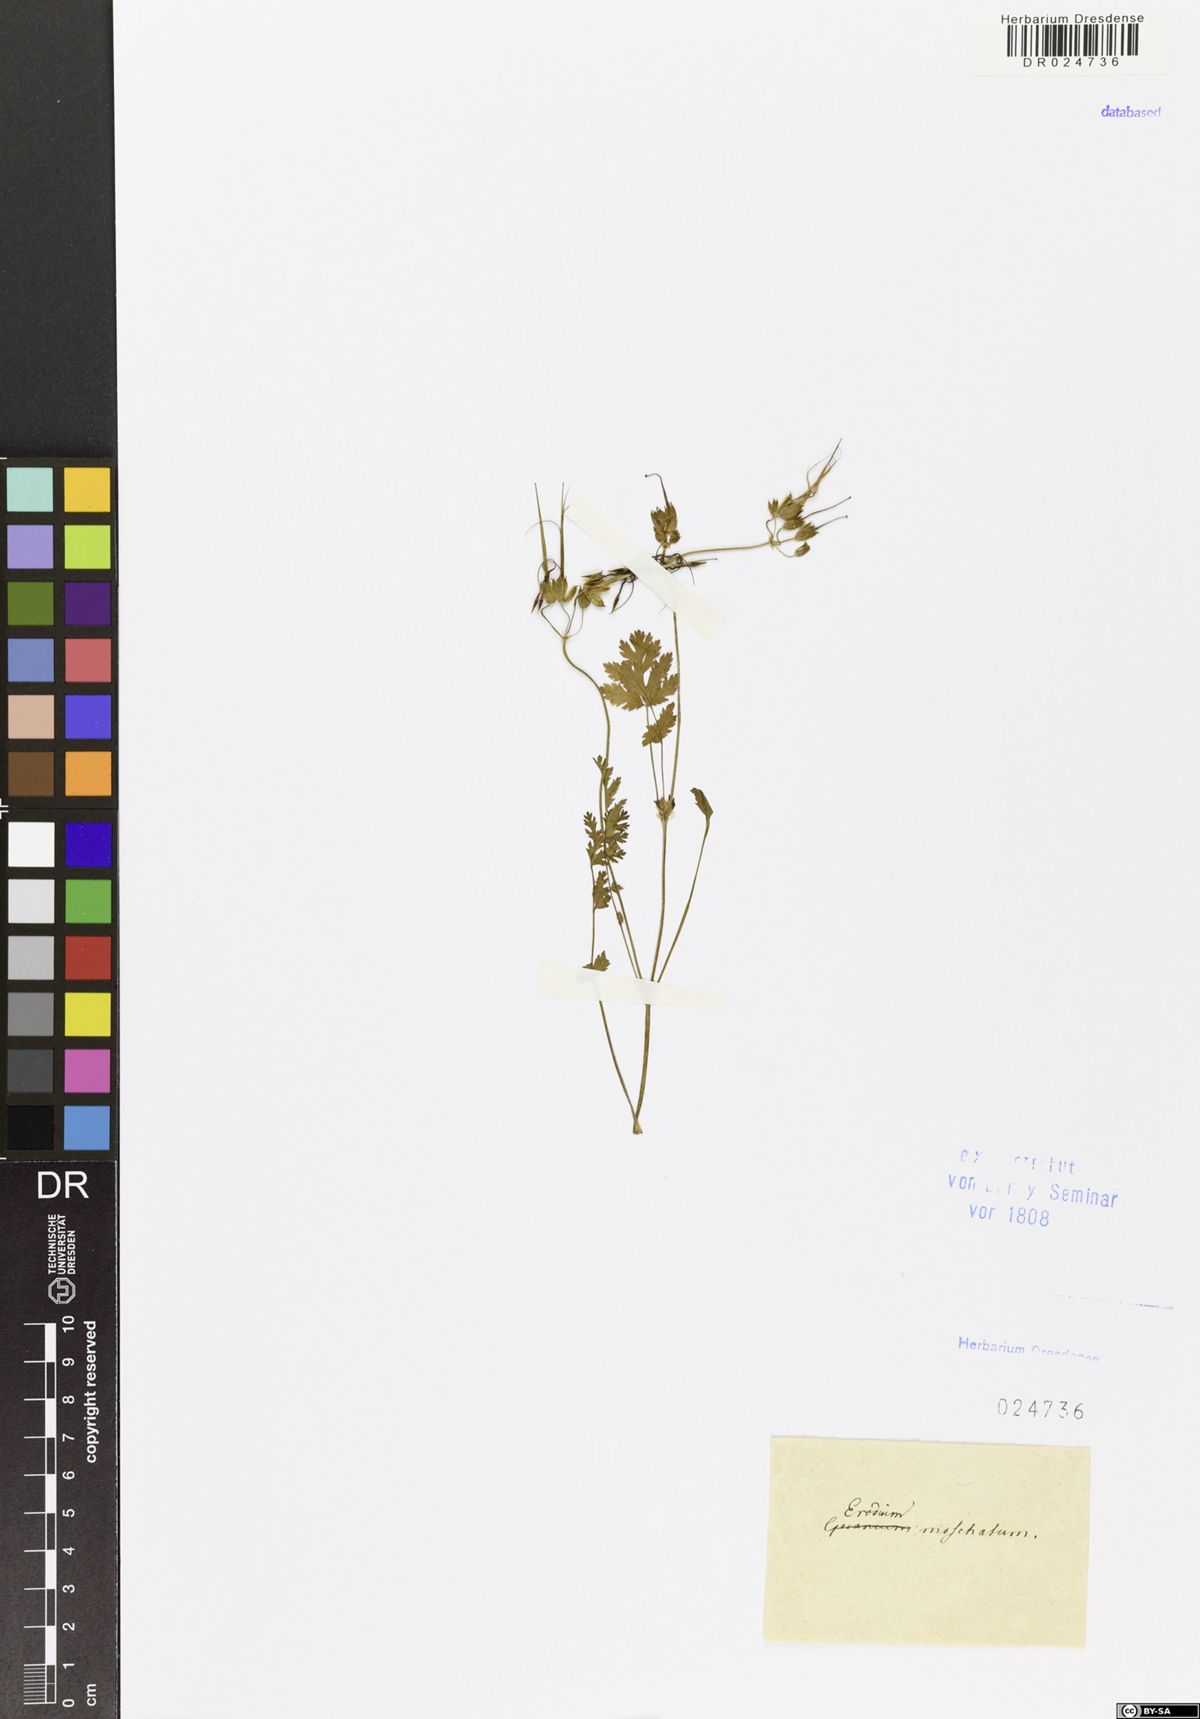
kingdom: Plantae
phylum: Tracheophyta
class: Magnoliopsida
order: Geraniales
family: Geraniaceae
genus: Erodium
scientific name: Erodium moschatum
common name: Musk stork's-bill
